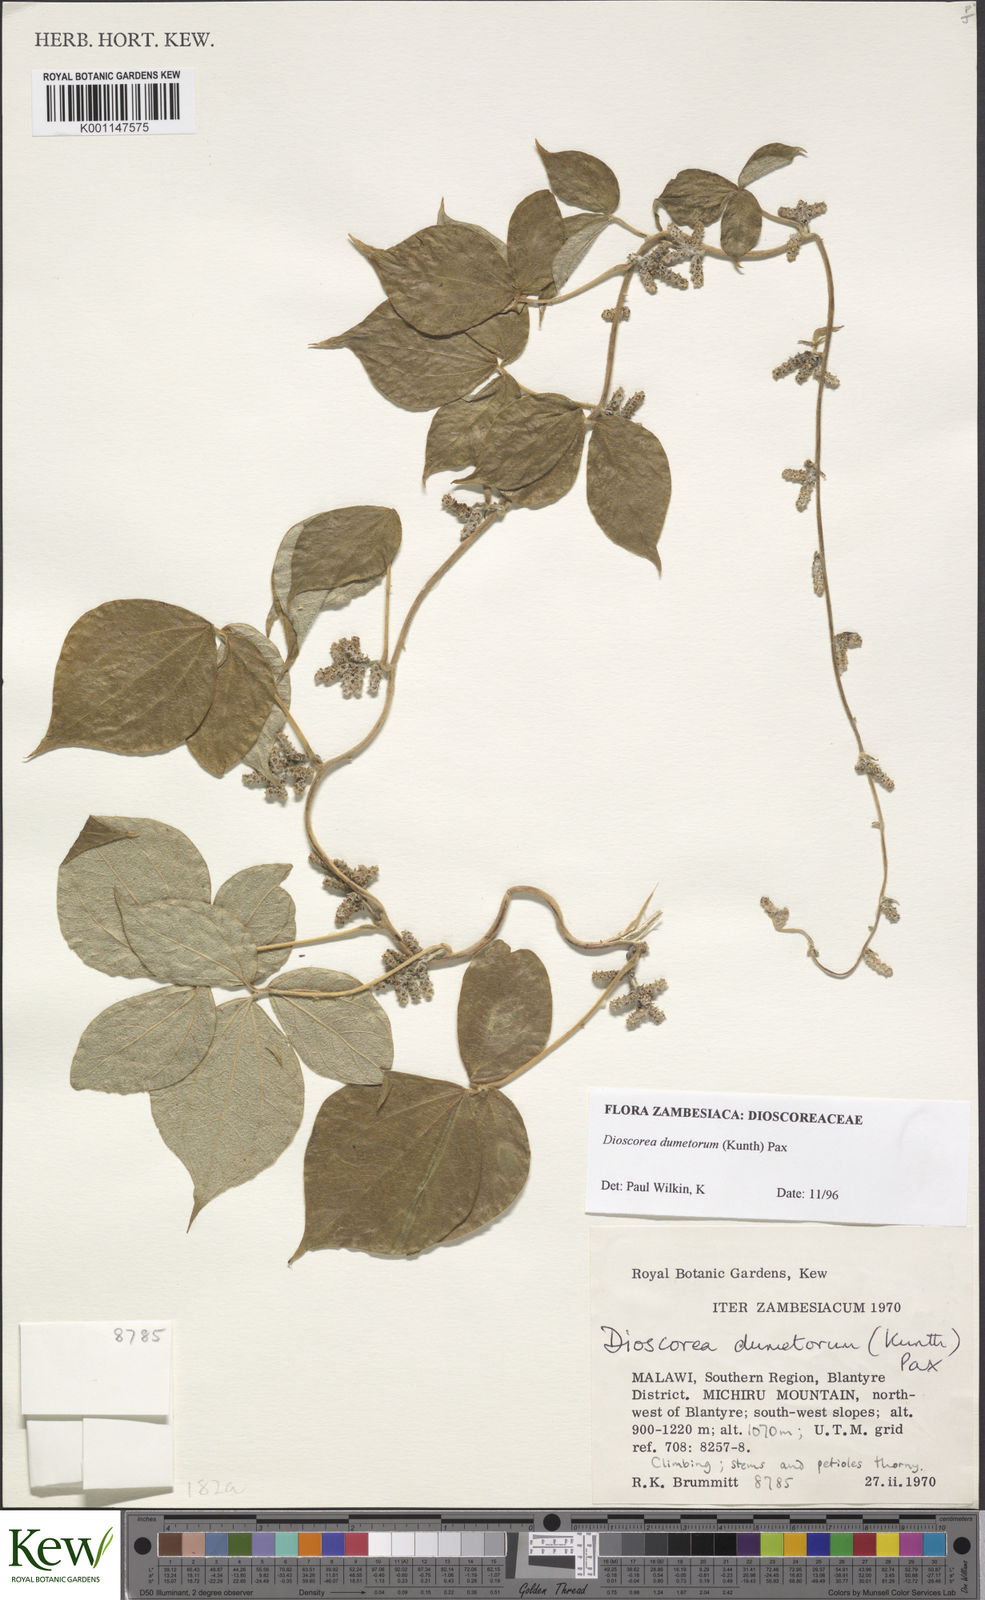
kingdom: Plantae
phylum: Tracheophyta
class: Liliopsida
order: Dioscoreales
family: Dioscoreaceae
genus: Dioscorea
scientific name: Dioscorea dumetorum
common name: African bitter yam
